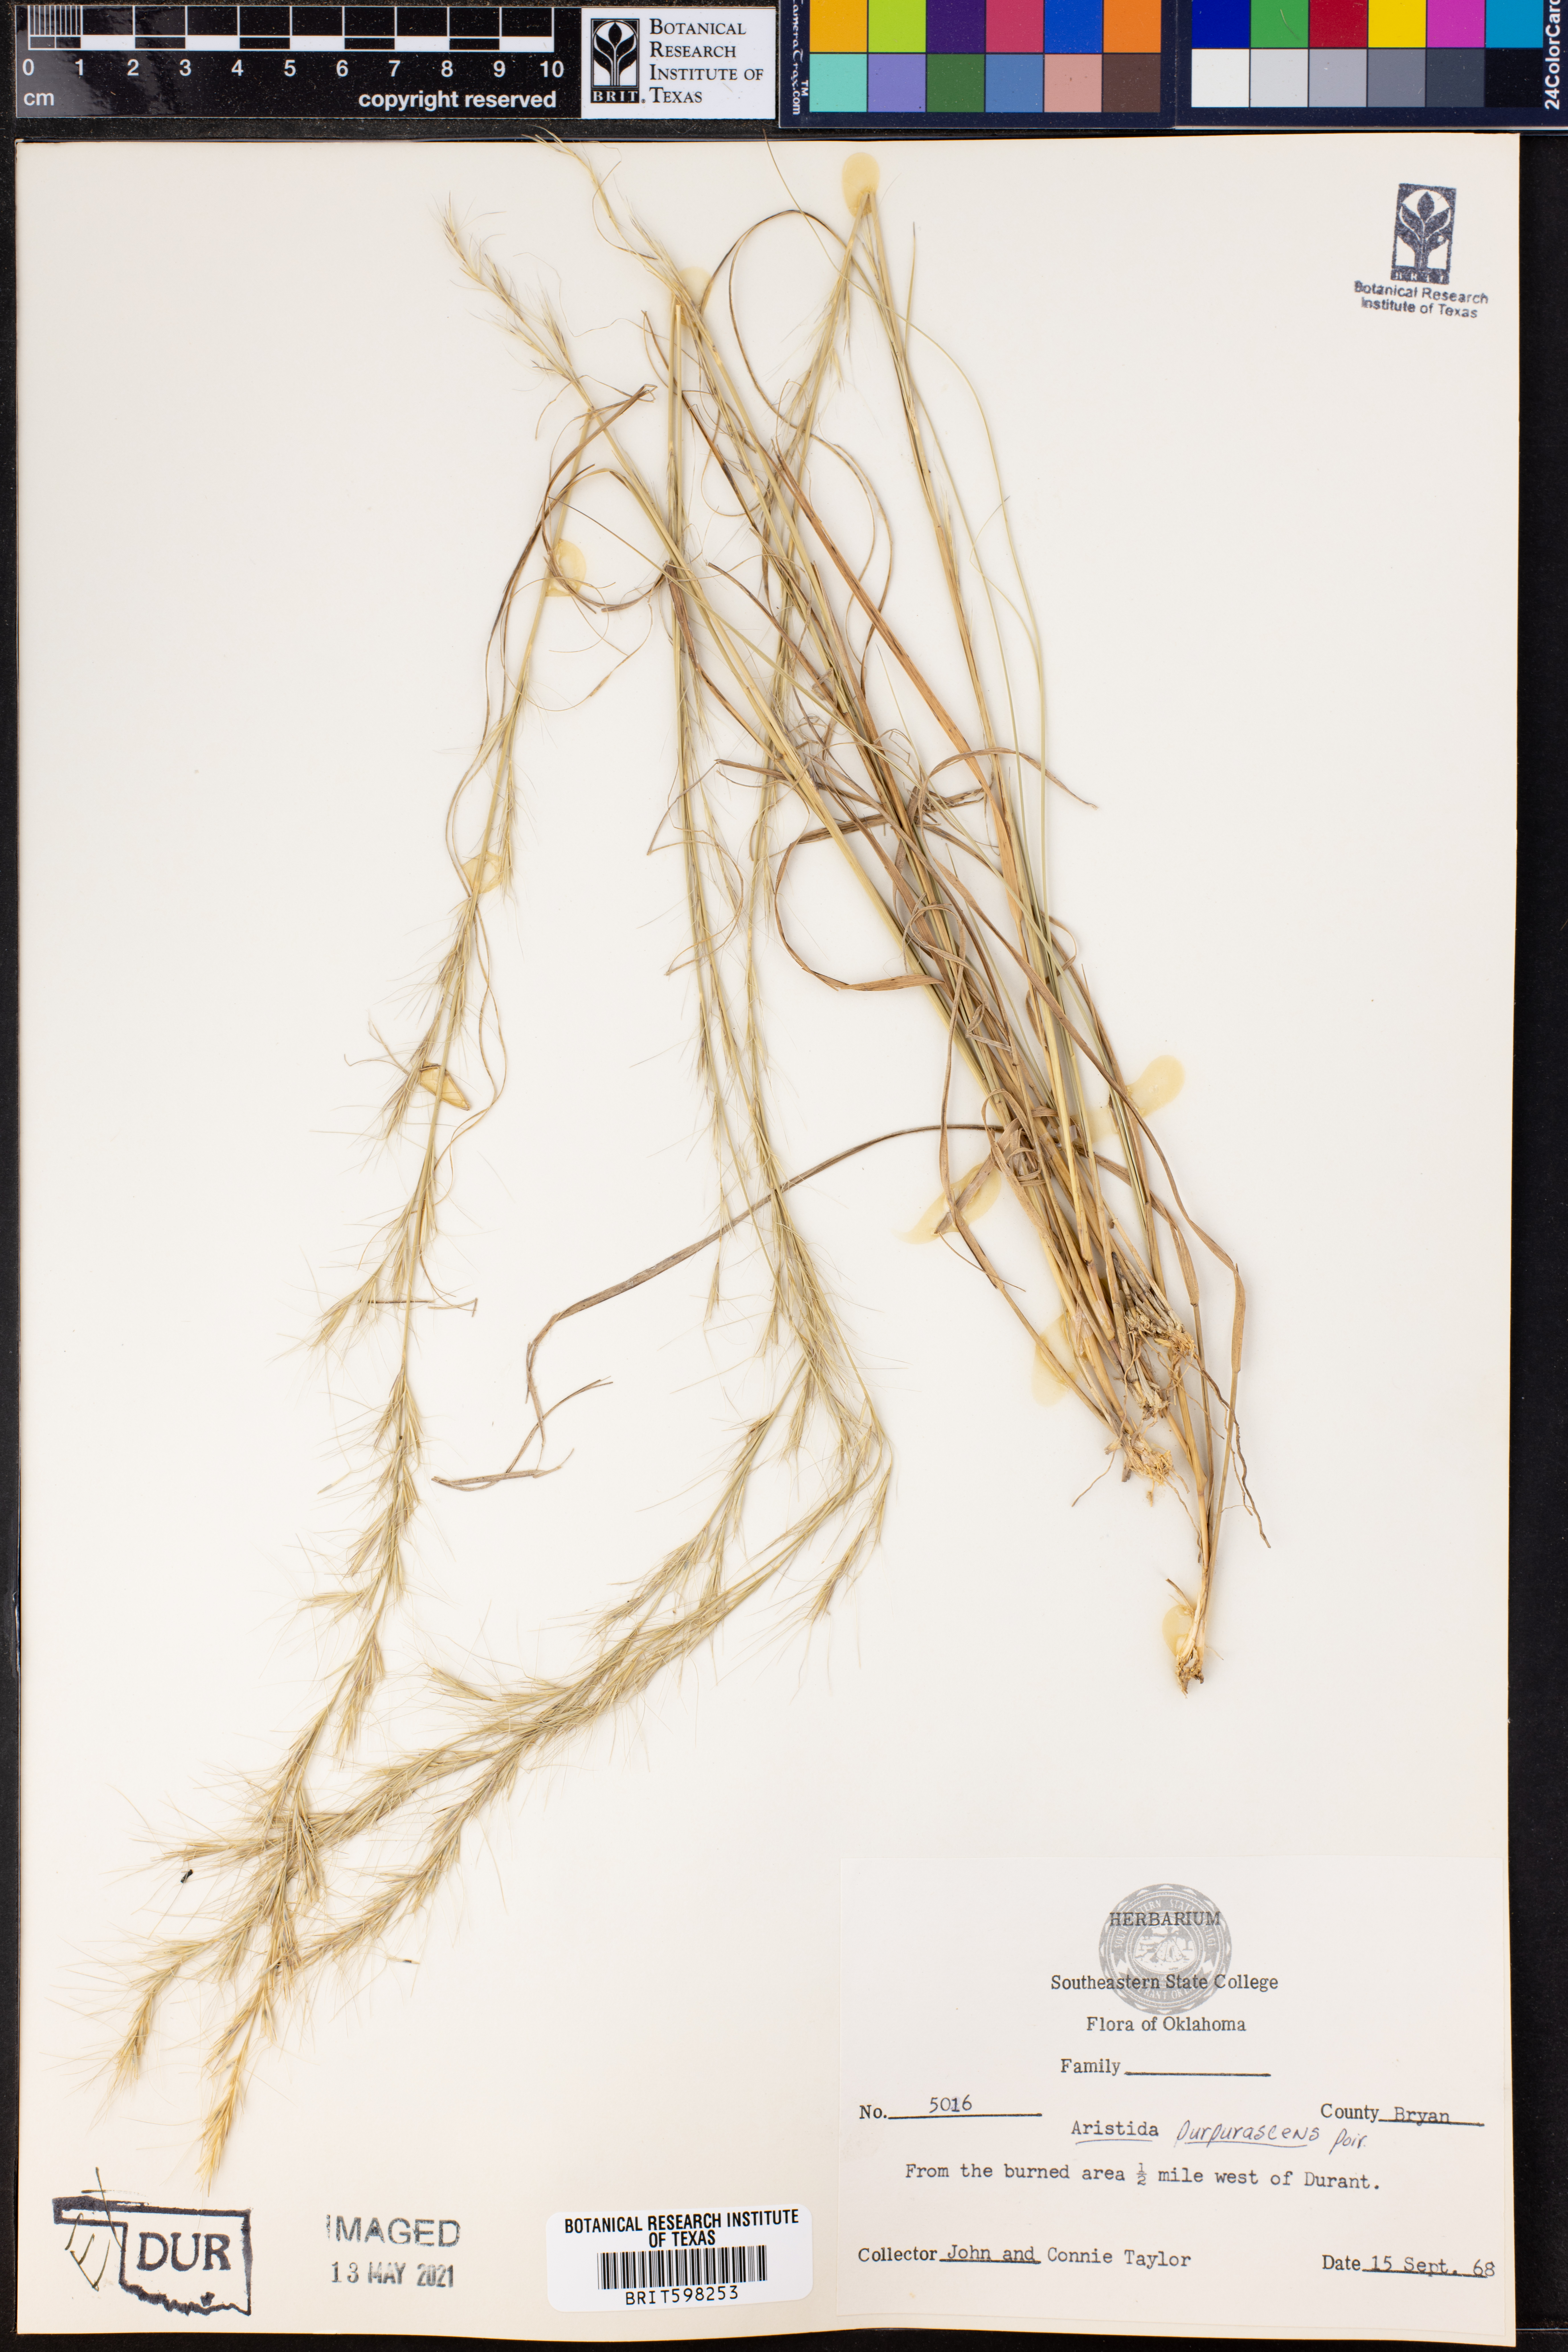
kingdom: Plantae
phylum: Tracheophyta
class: Liliopsida
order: Poales
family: Poaceae
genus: Aristida
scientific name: Aristida purpurascens
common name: Arrow-feather
